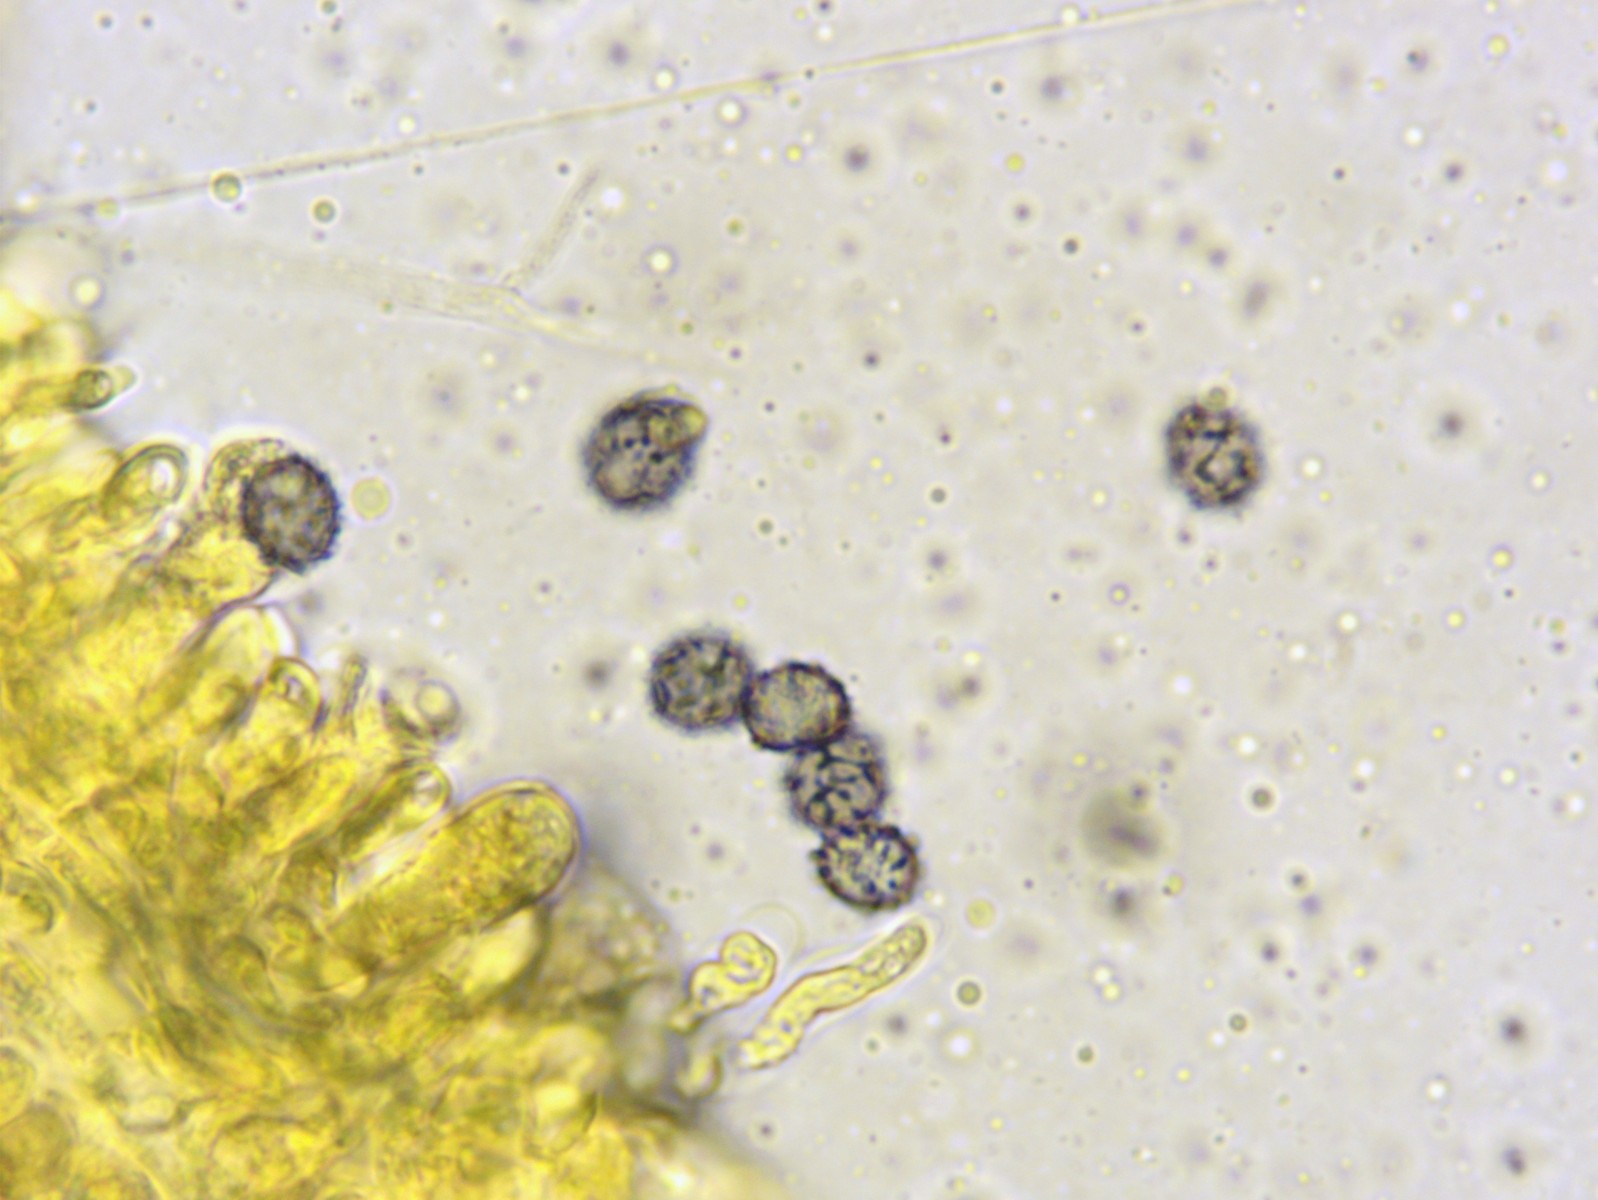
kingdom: Fungi
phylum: Basidiomycota
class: Agaricomycetes
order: Russulales
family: Russulaceae
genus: Lactarius
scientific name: Lactarius camphoratus
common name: kamfer-mælkehat
